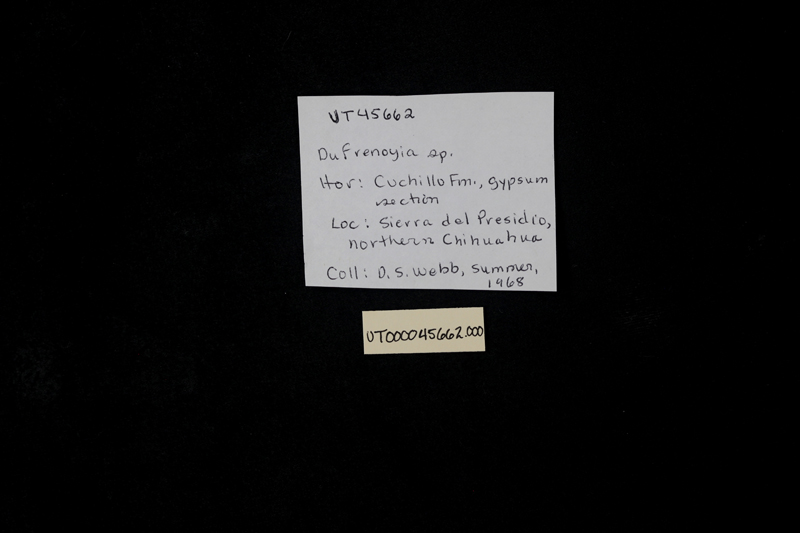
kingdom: Animalia
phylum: Mollusca
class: Cephalopoda
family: Deshayesitidae
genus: Dufrenoyia
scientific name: Dufrenoyia
